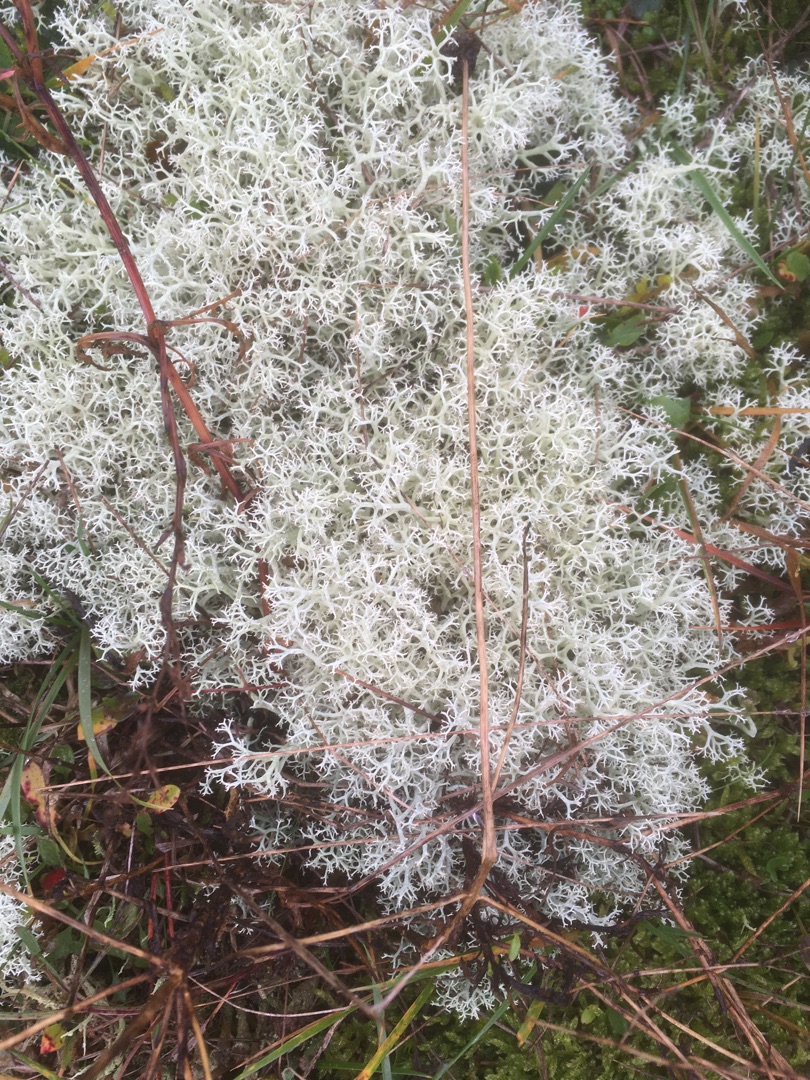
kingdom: Fungi
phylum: Ascomycota
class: Lecanoromycetes
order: Lecanorales
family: Cladoniaceae
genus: Cladonia
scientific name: Cladonia portentosa
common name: Hede-rensdyrlav
